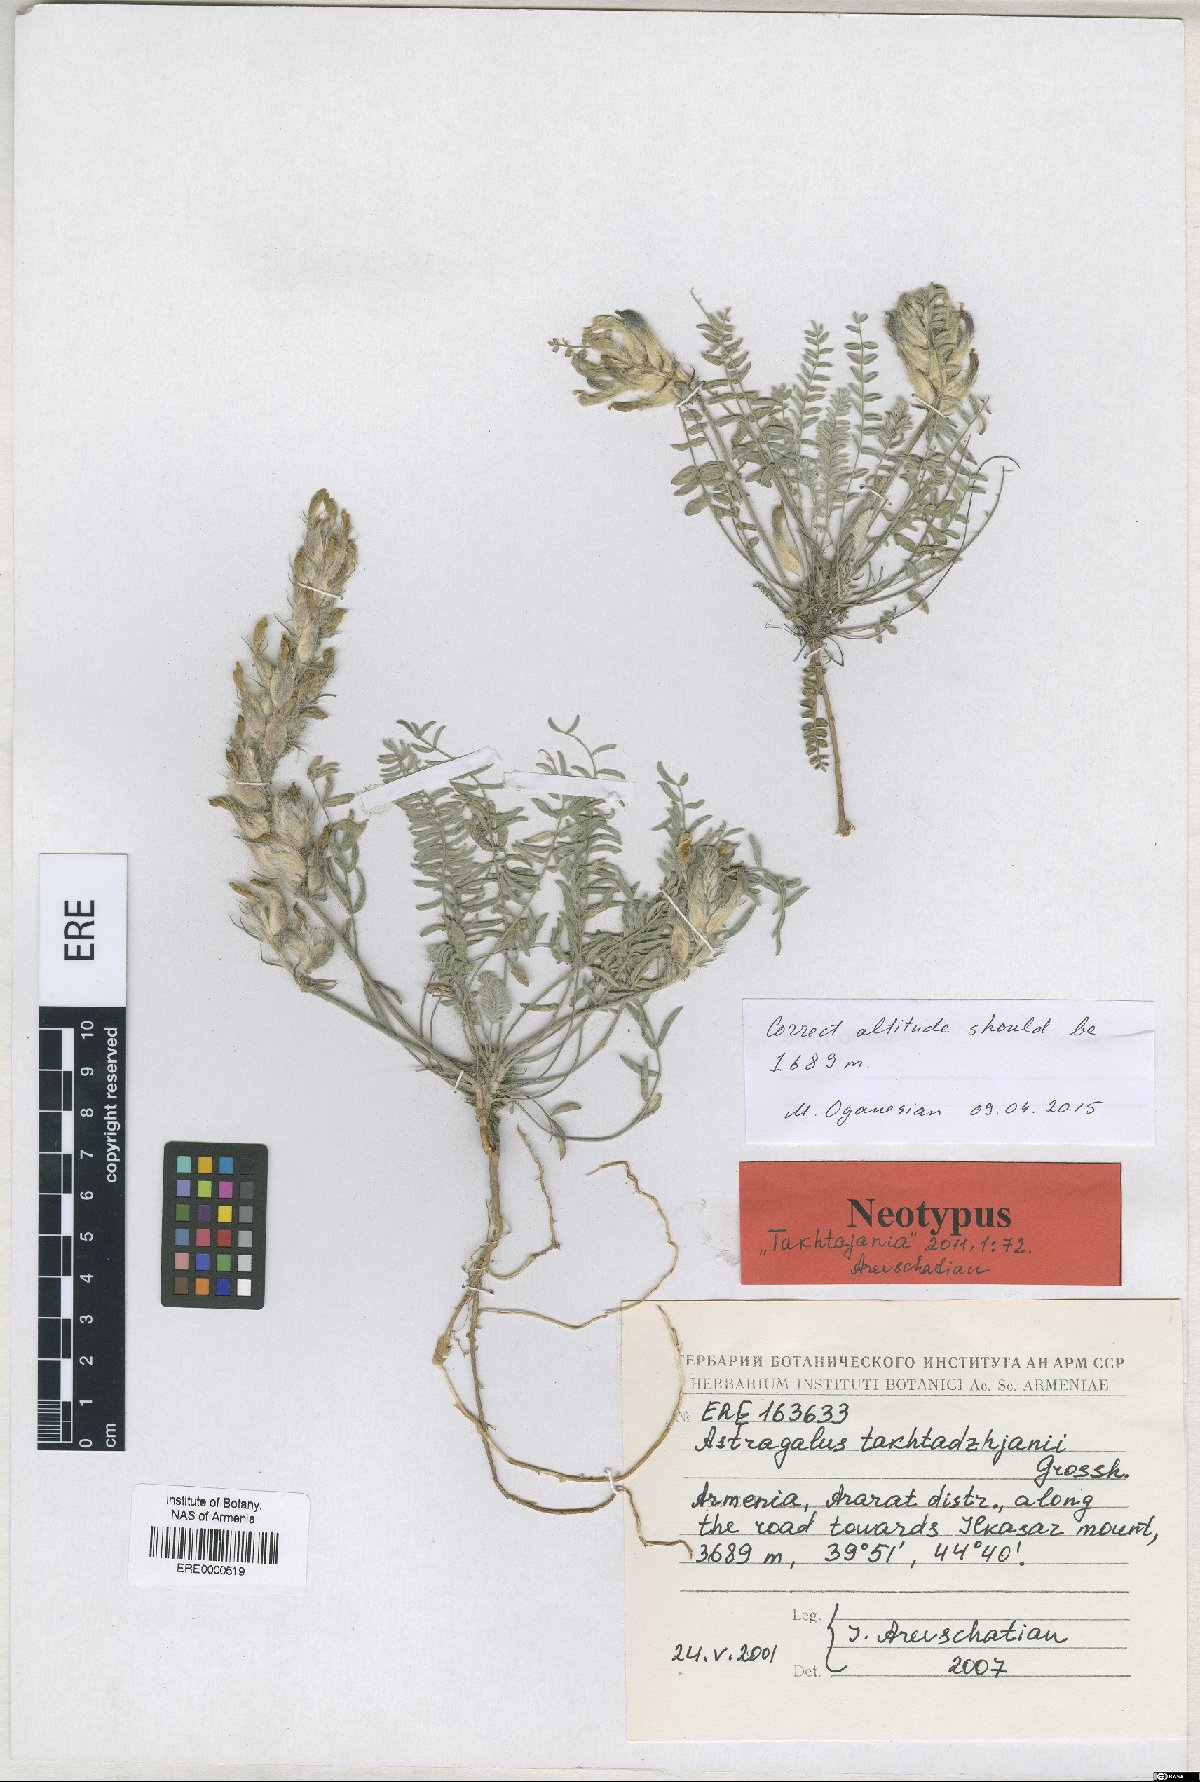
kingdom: Plantae
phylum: Tracheophyta
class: Magnoliopsida
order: Fabales
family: Fabaceae
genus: Astragalus
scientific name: Astragalus takhtadzhjanii
